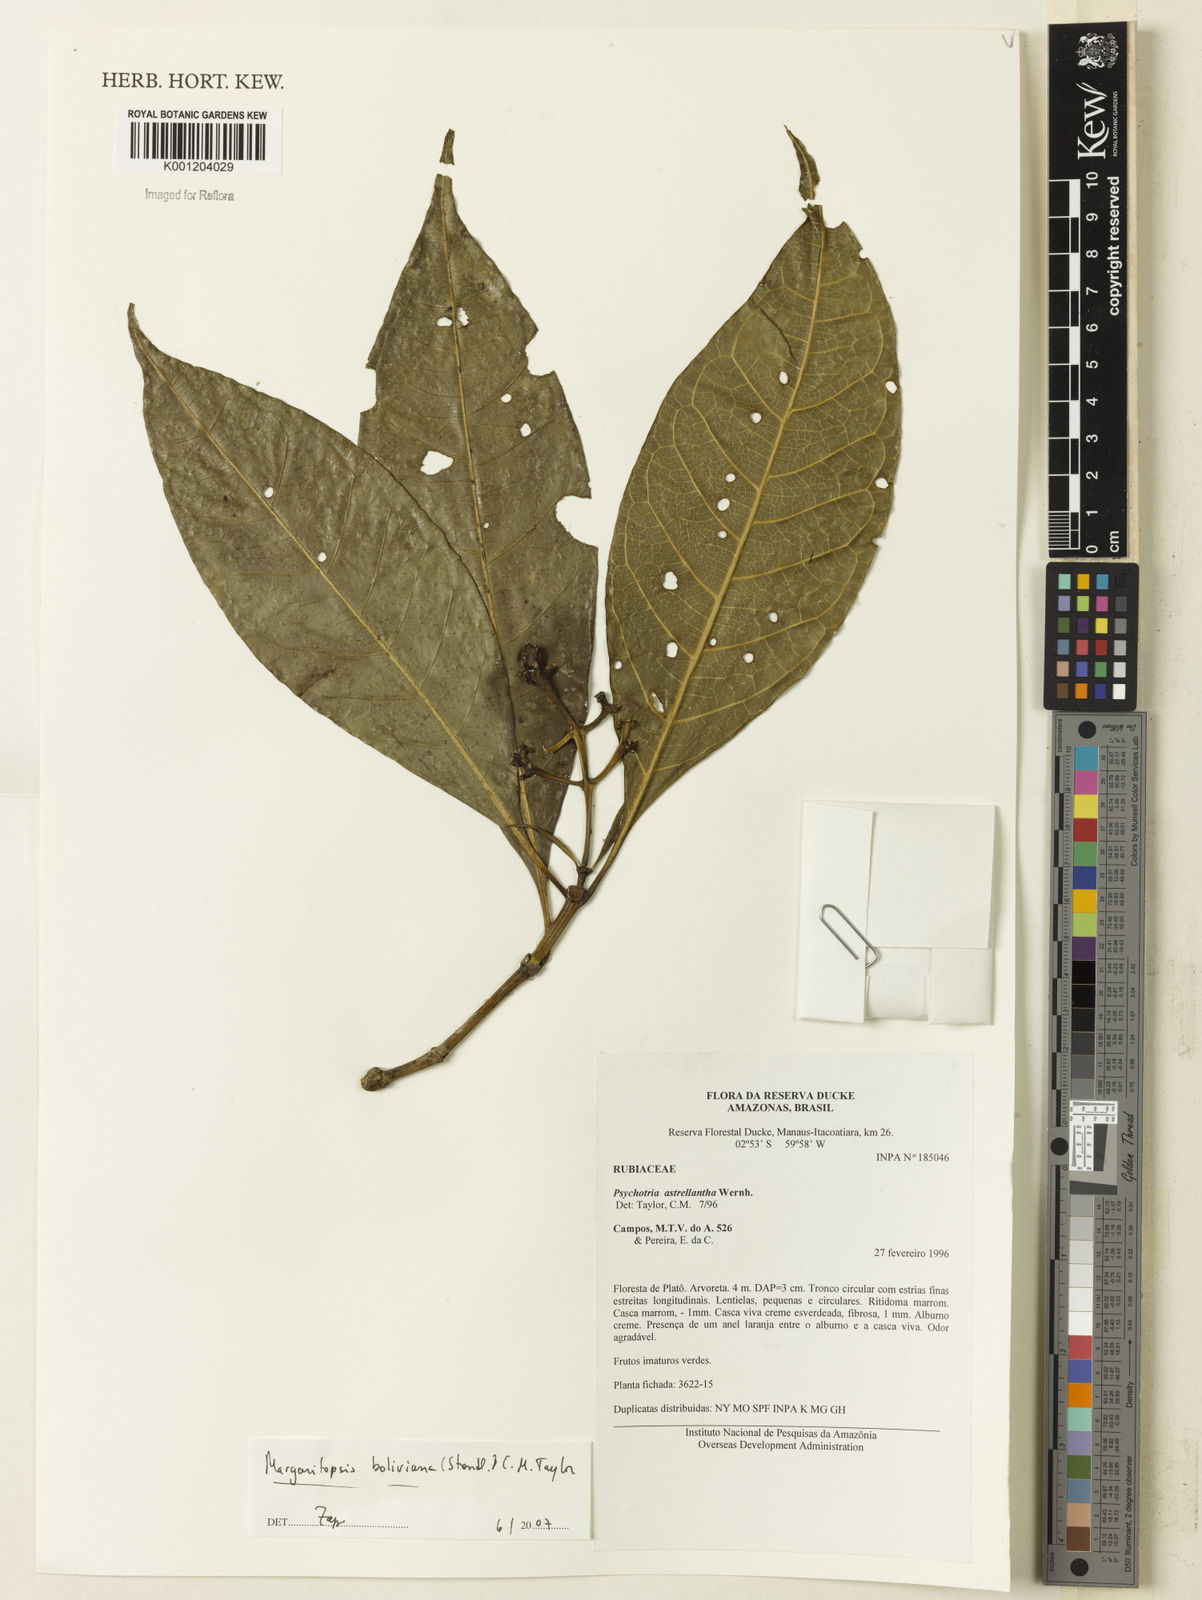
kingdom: Plantae
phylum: Tracheophyta
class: Magnoliopsida
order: Gentianales
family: Rubiaceae
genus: Eumachia
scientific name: Eumachia boliviana
